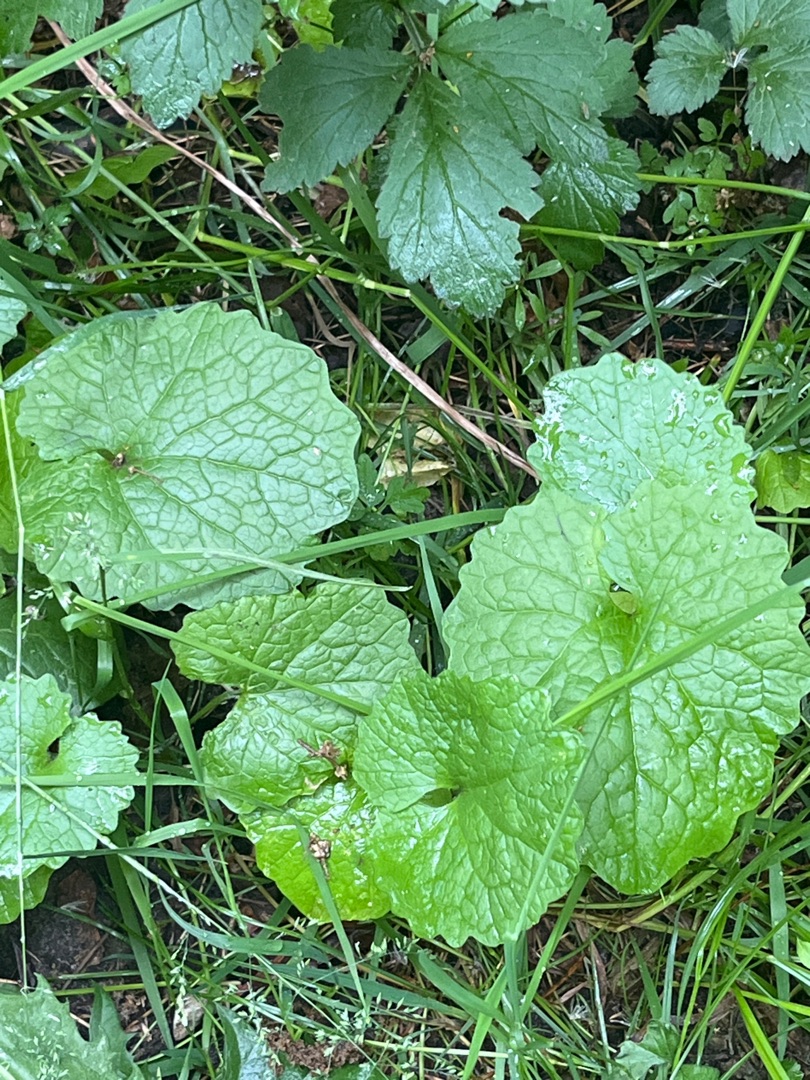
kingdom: Plantae
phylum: Tracheophyta
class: Magnoliopsida
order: Brassicales
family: Brassicaceae
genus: Alliaria
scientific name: Alliaria petiolata
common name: Løgkarse
